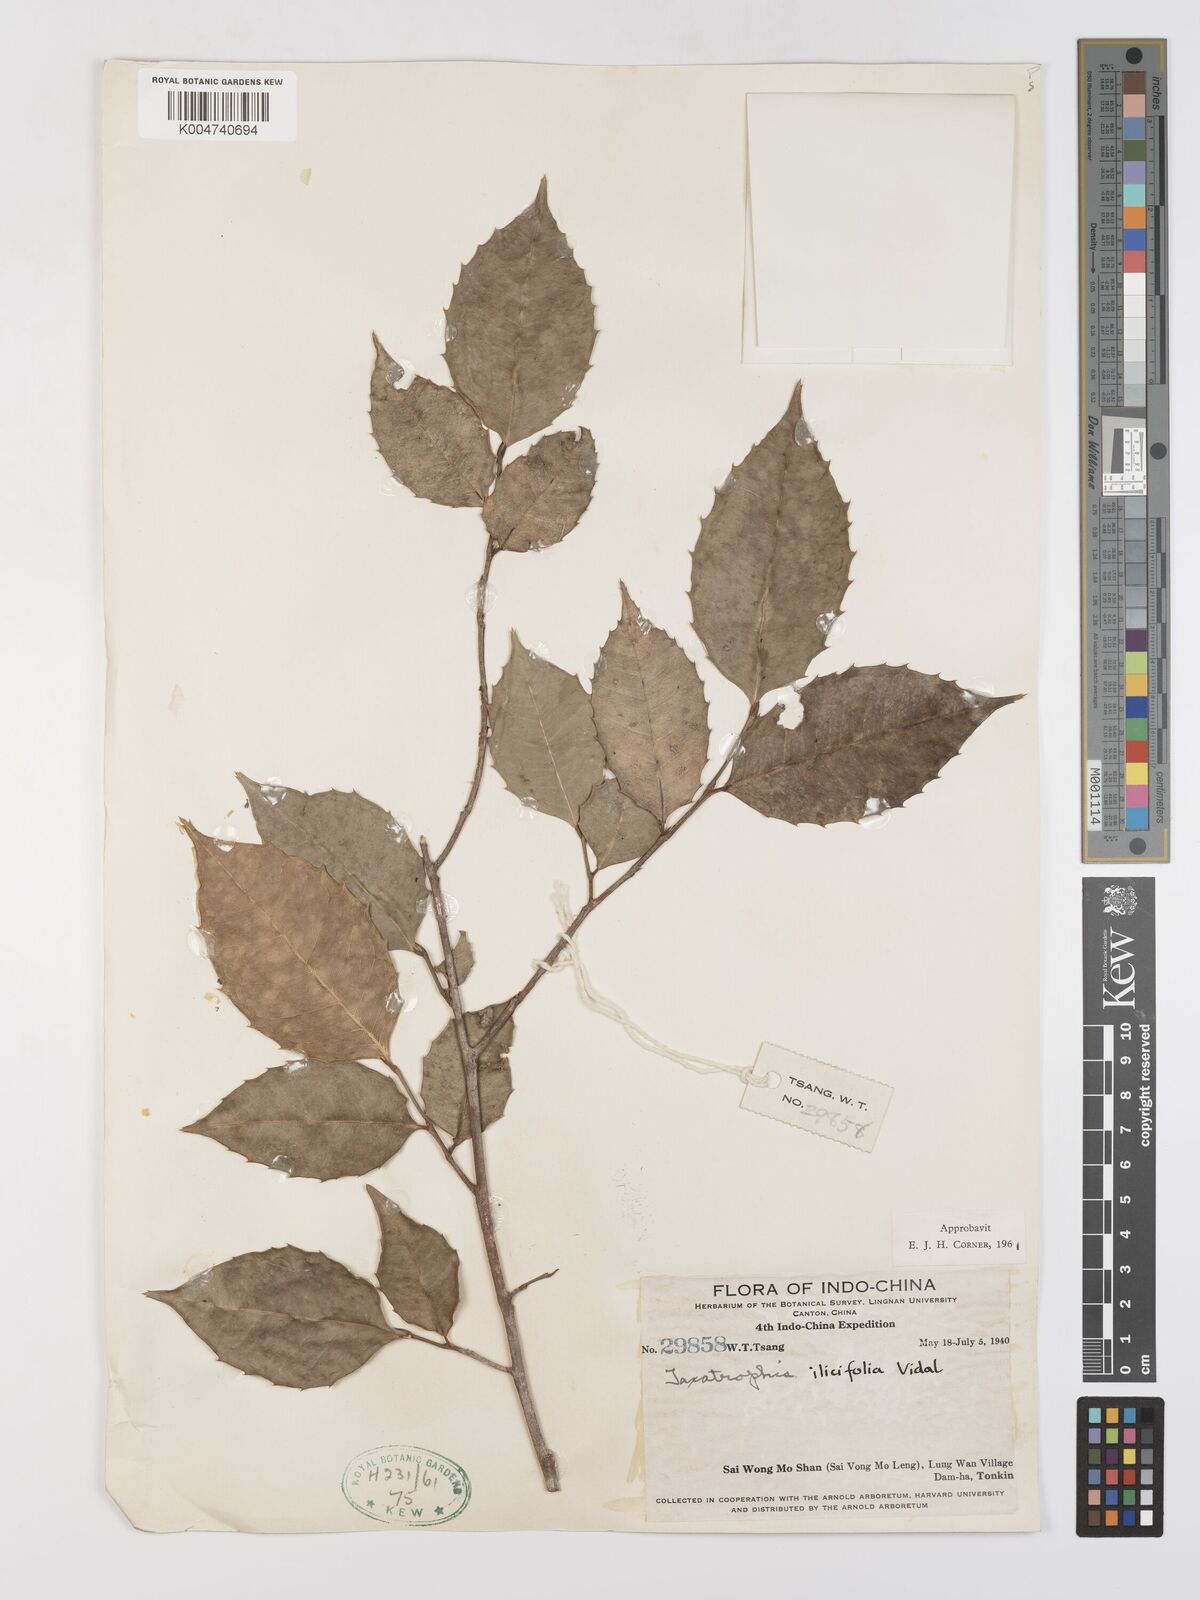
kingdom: Plantae
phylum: Tracheophyta
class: Magnoliopsida
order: Rosales
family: Moraceae
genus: Taxotrophis
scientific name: Taxotrophis ilicifolia
